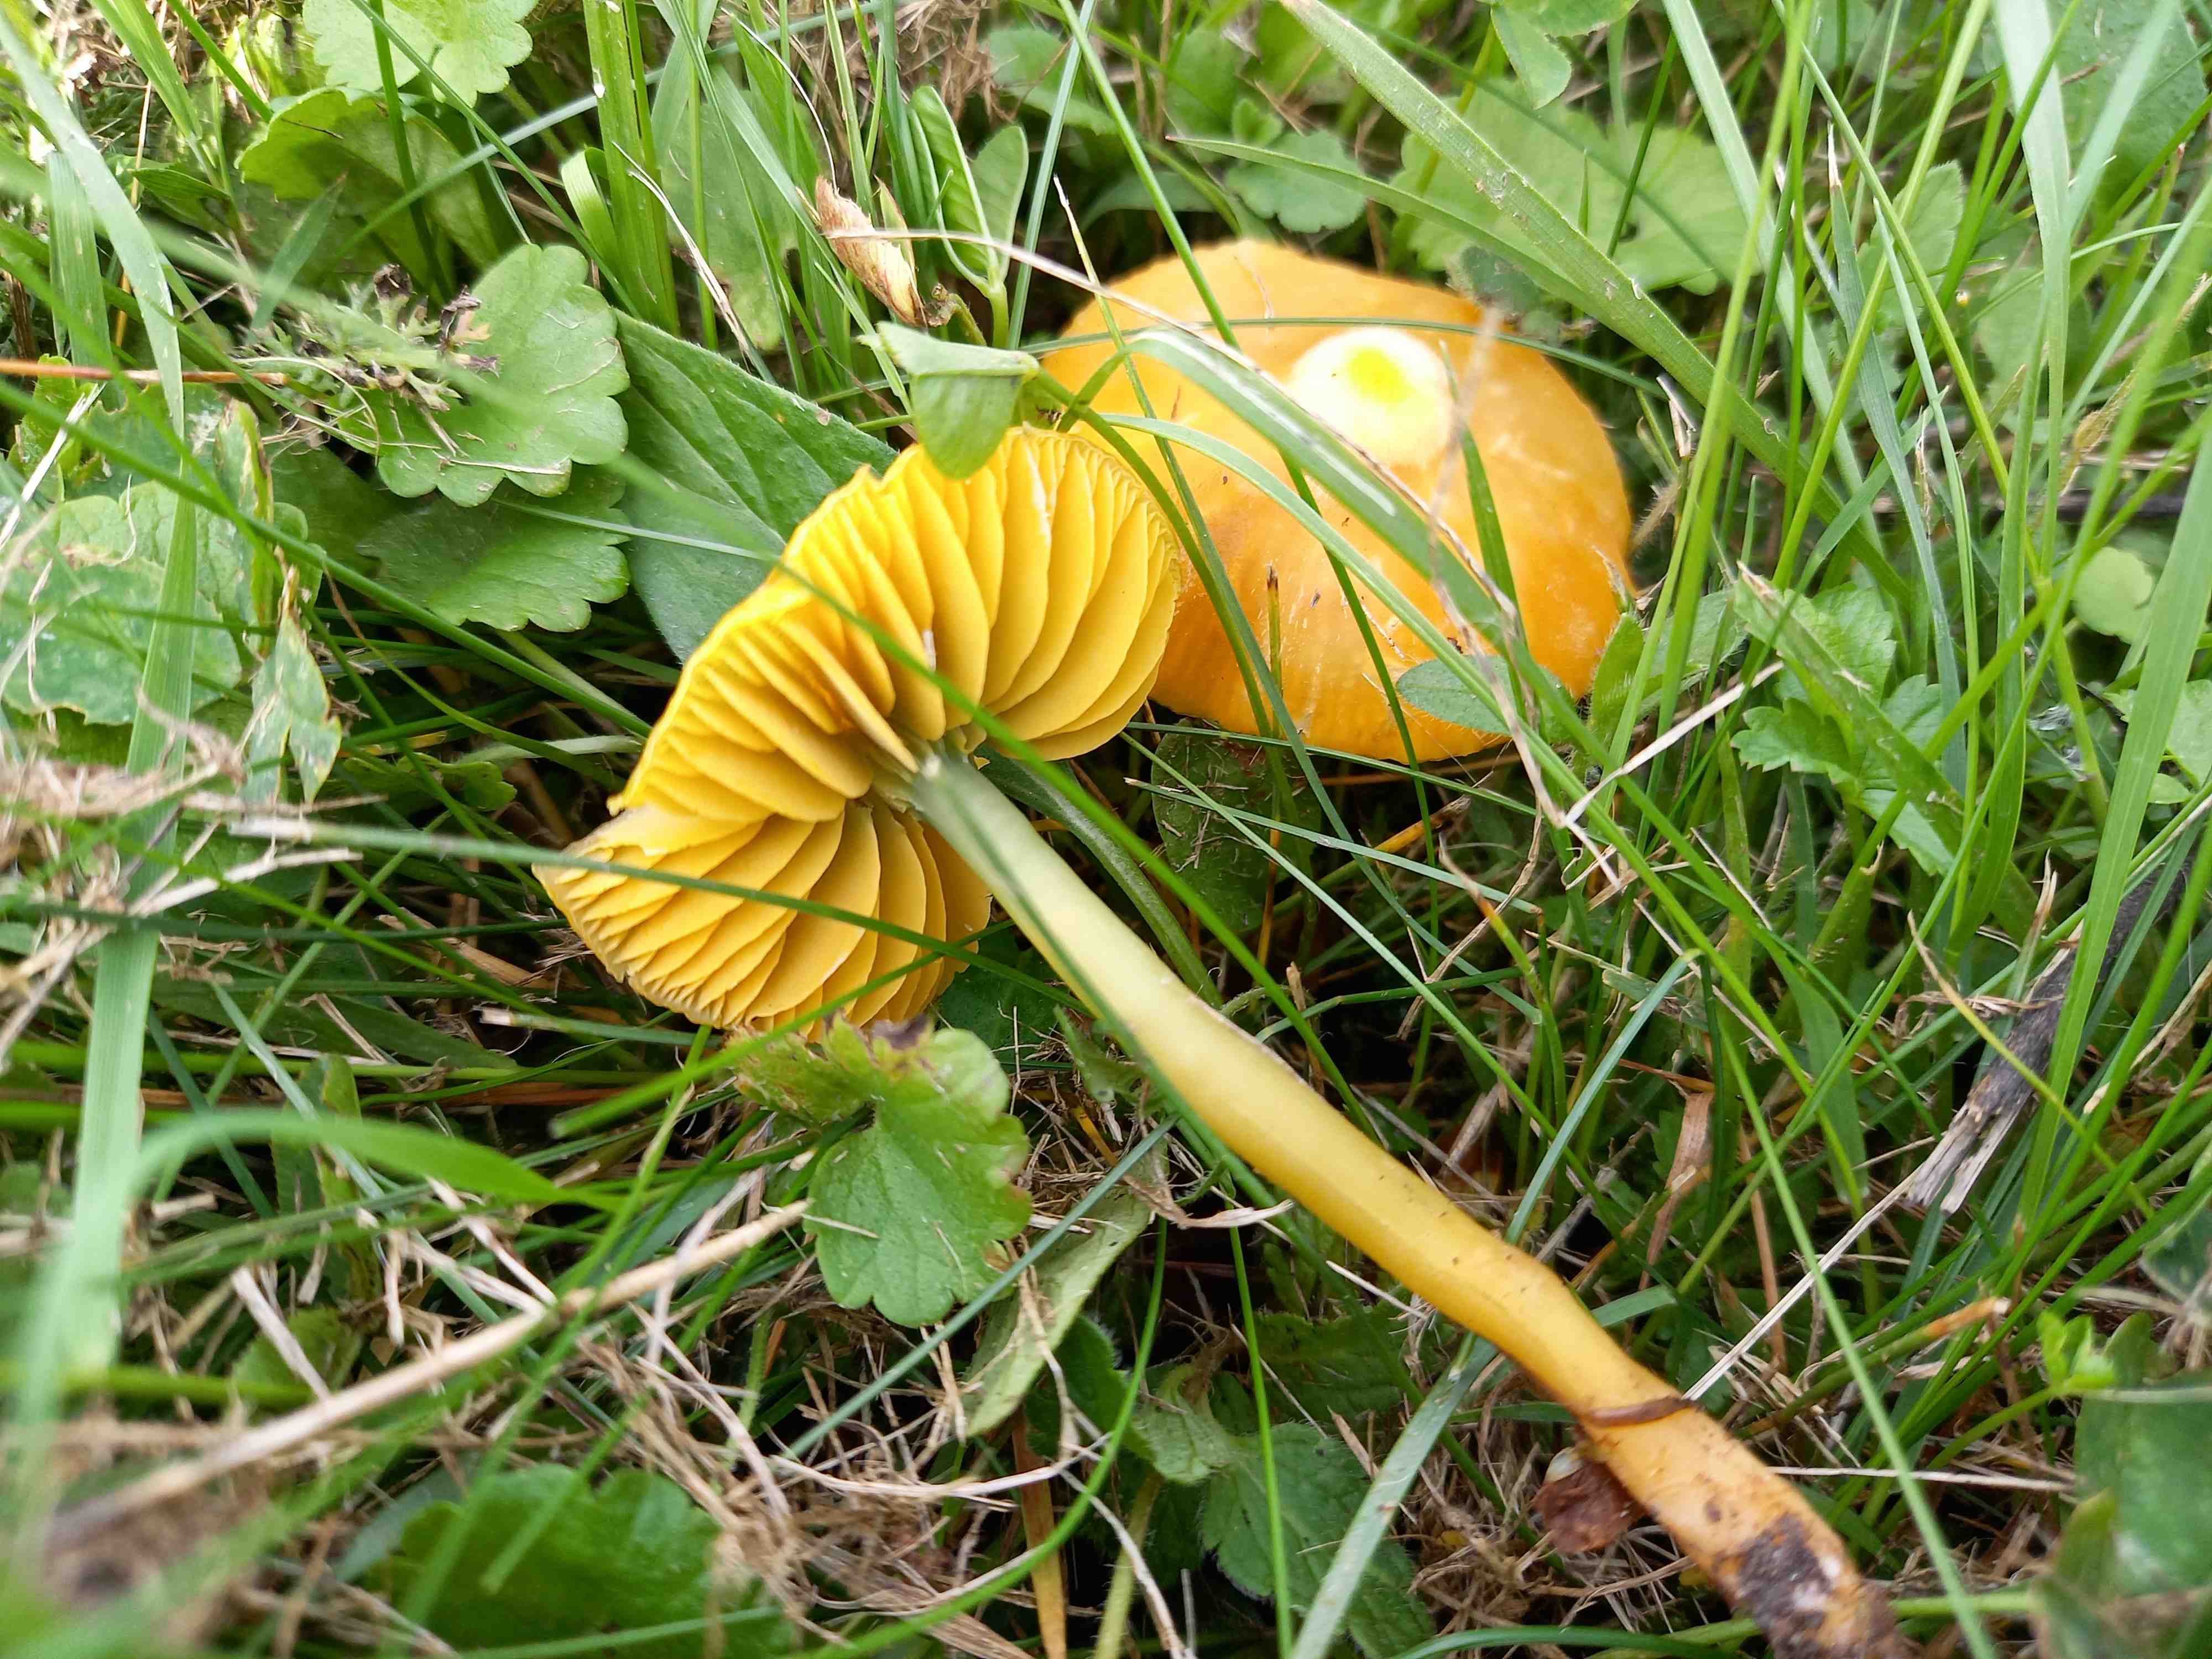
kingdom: Fungi
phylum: Basidiomycota
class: Agaricomycetes
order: Agaricales
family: Hygrophoraceae
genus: Gliophorus
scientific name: Gliophorus psittacinus
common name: papegøje-vokshat
